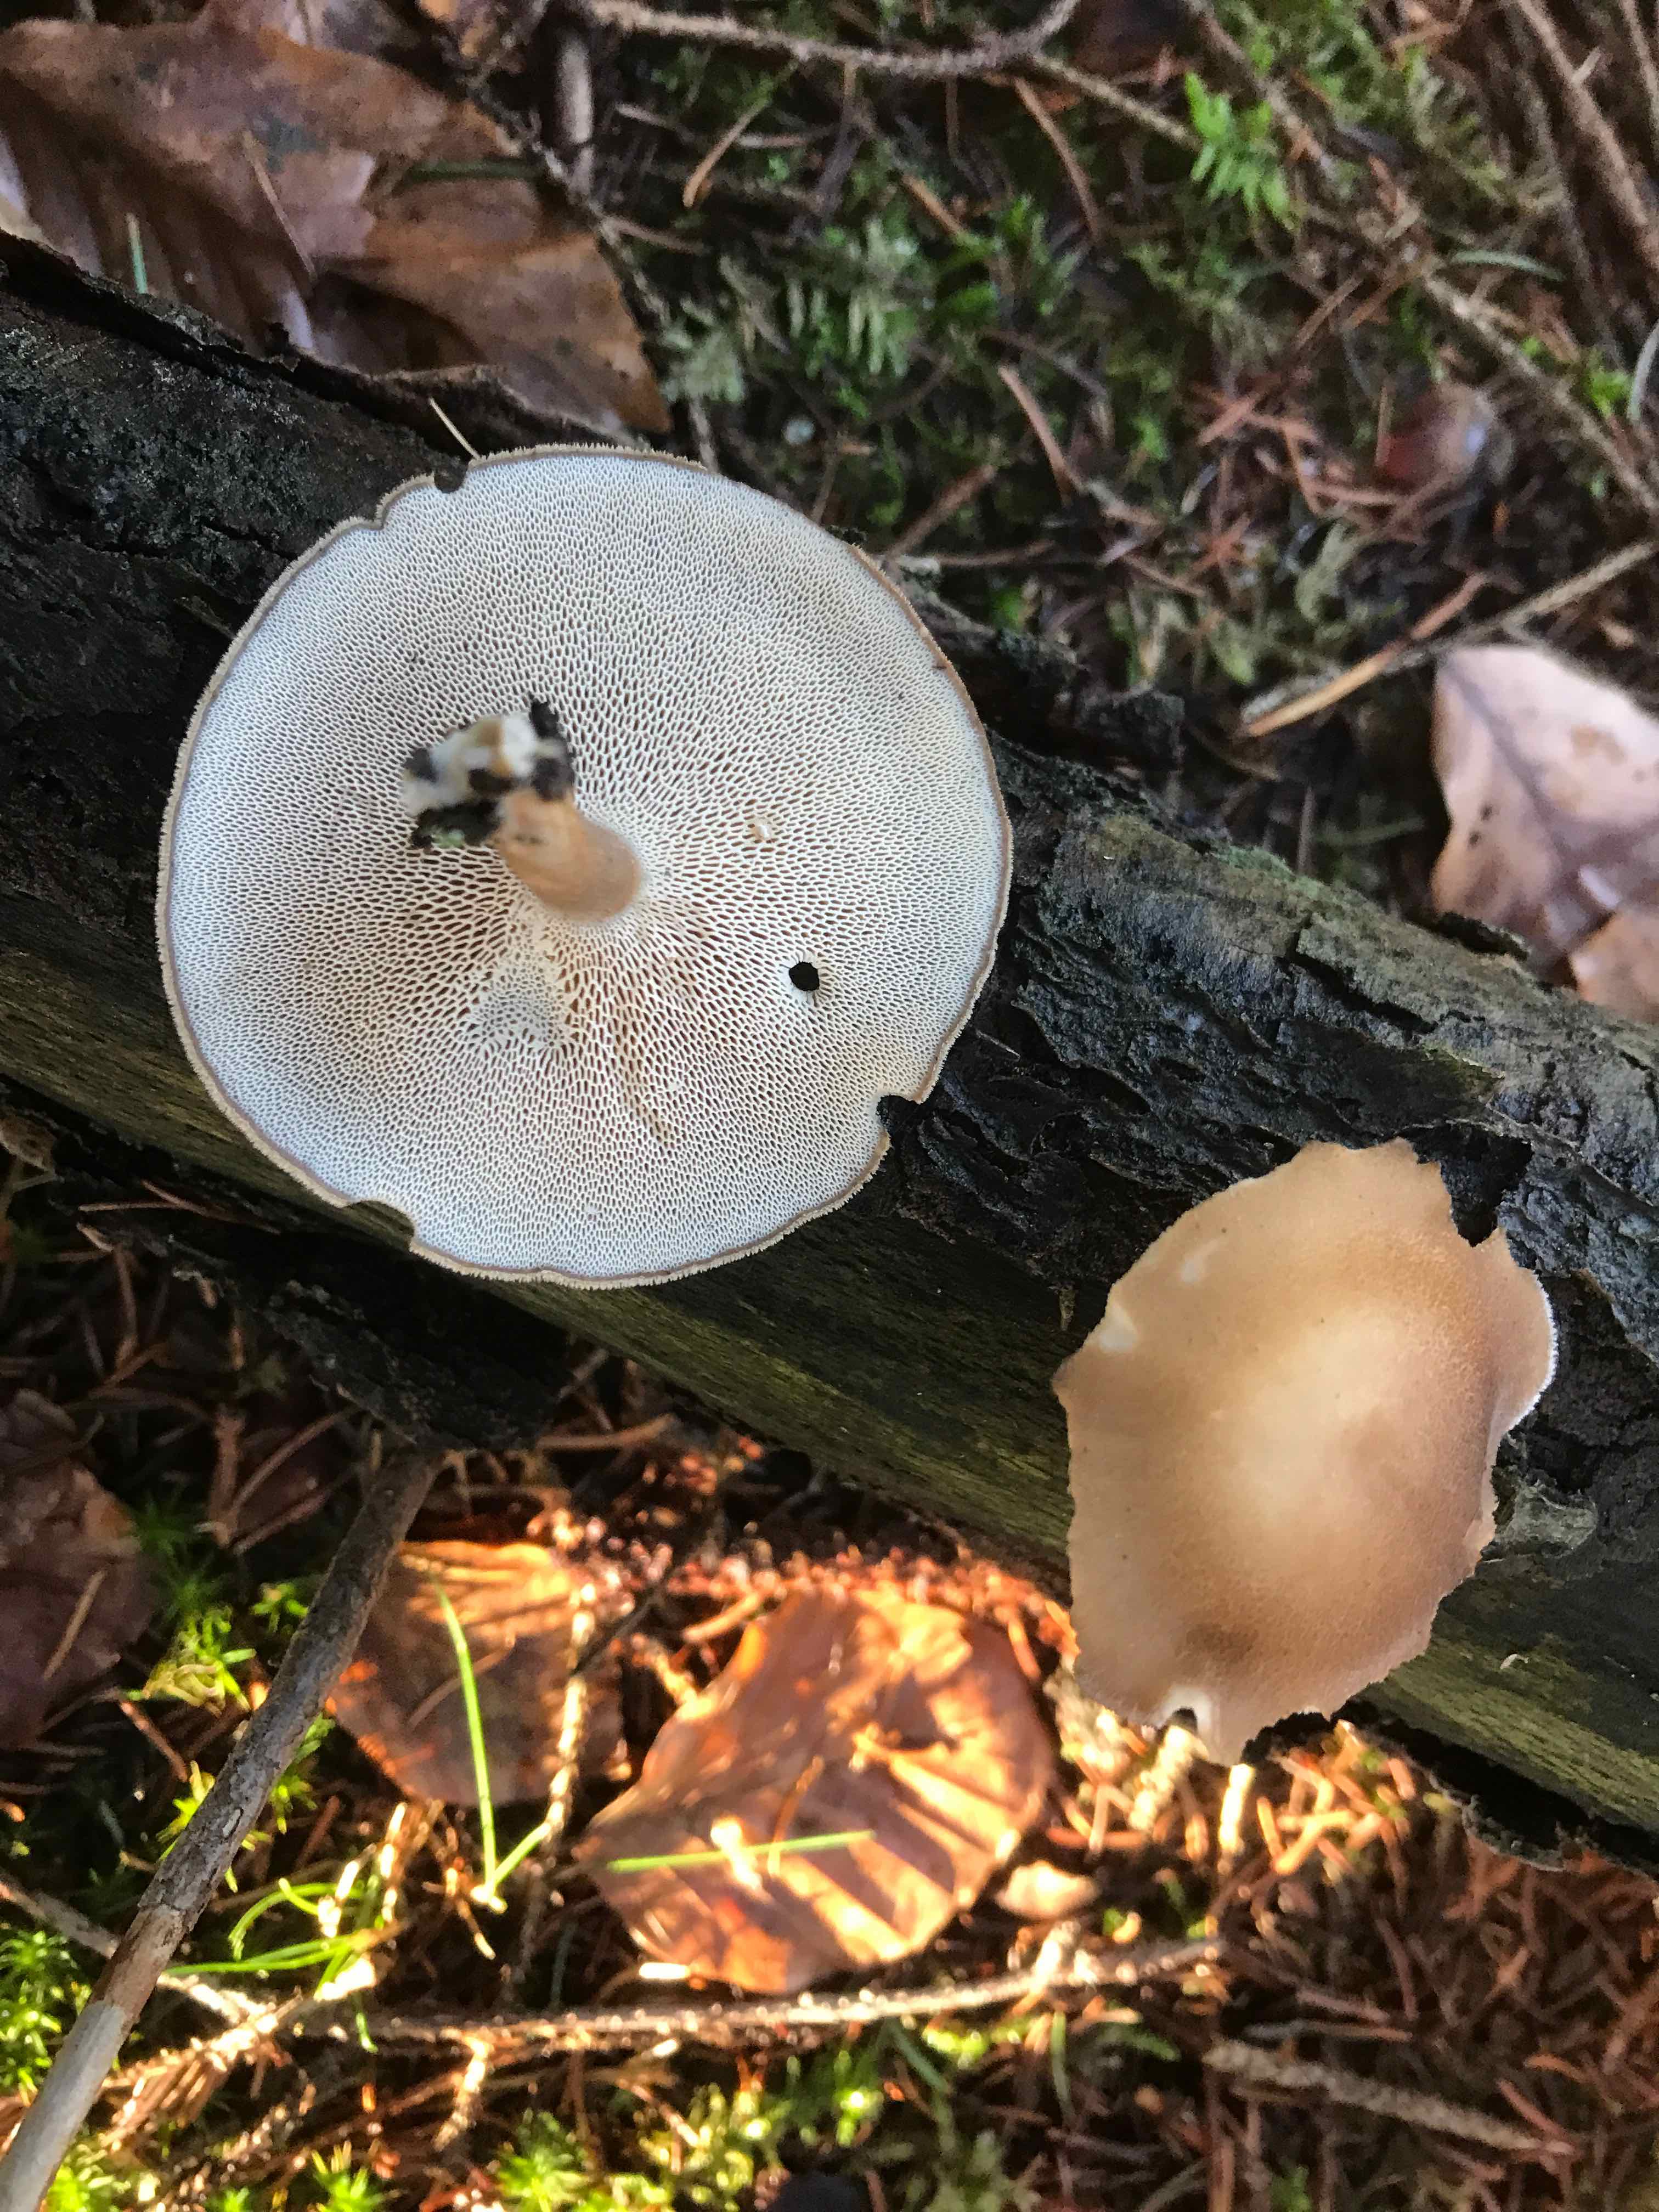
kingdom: Fungi
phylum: Basidiomycota
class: Agaricomycetes
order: Polyporales
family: Polyporaceae
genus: Lentinus
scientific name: Lentinus brumalis
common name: vinter-stilkporesvamp
